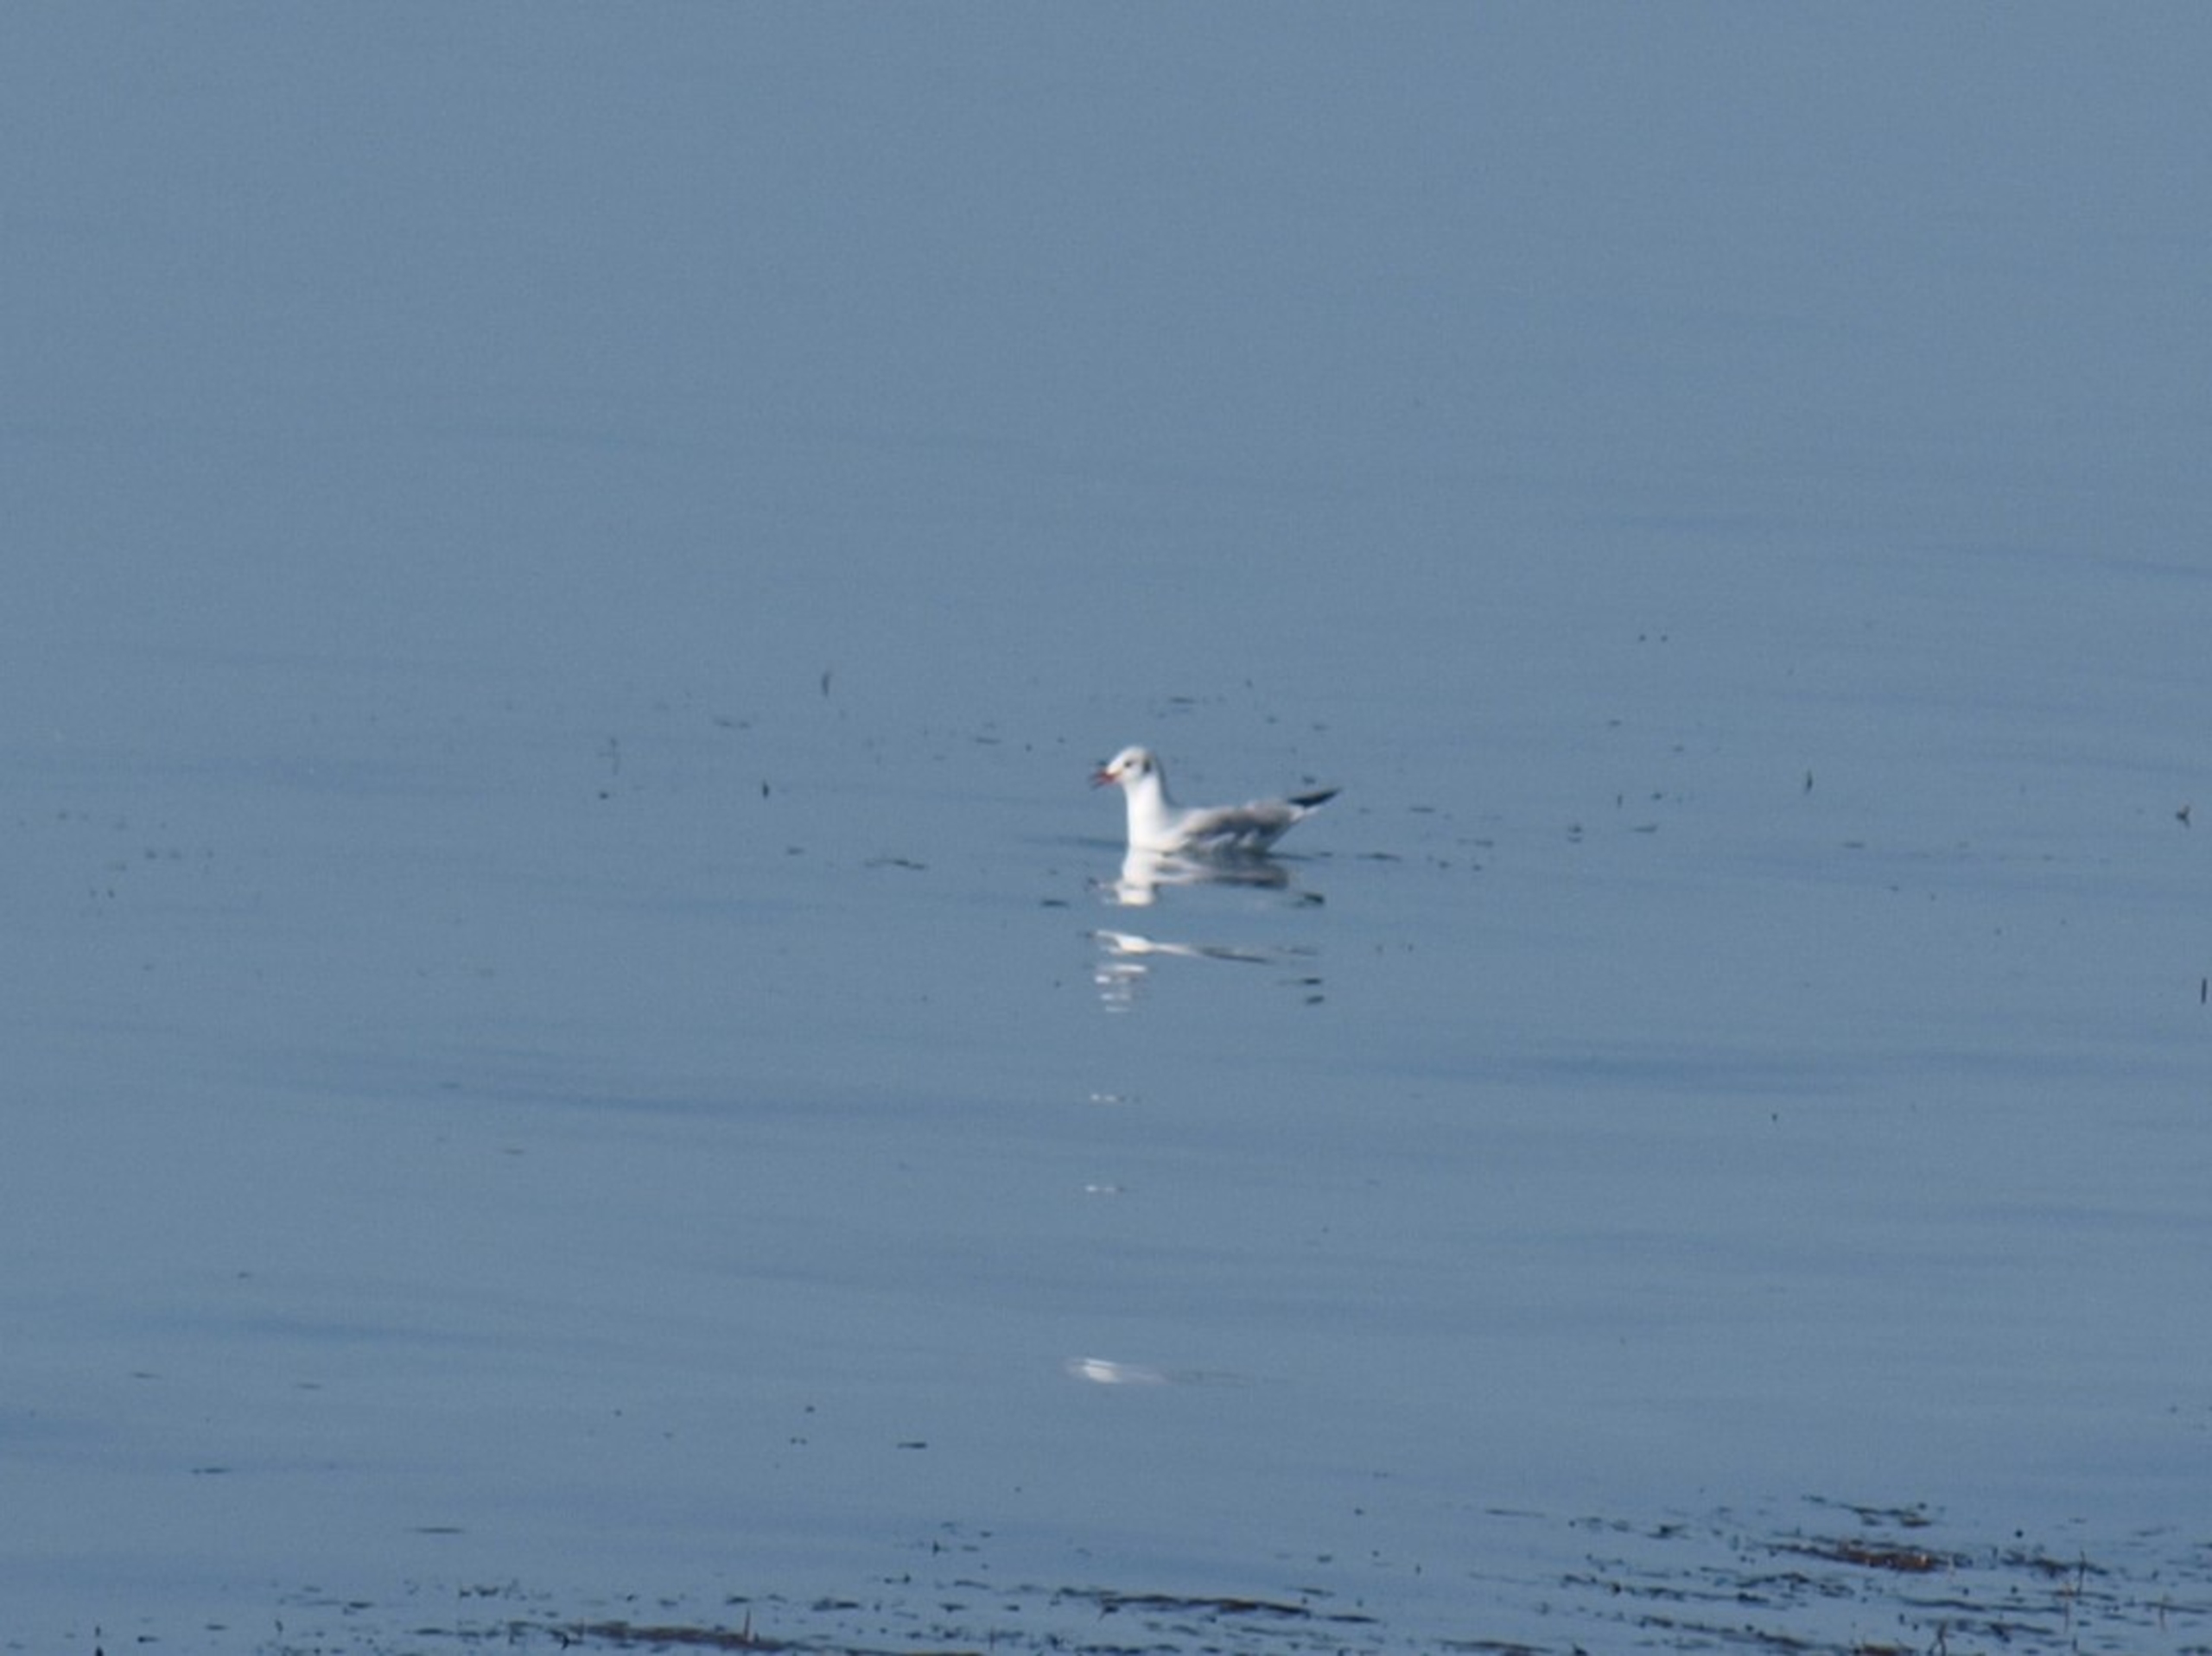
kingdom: Animalia
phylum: Chordata
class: Aves
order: Charadriiformes
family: Laridae
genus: Chroicocephalus
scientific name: Chroicocephalus ridibundus
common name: Hættemåge
